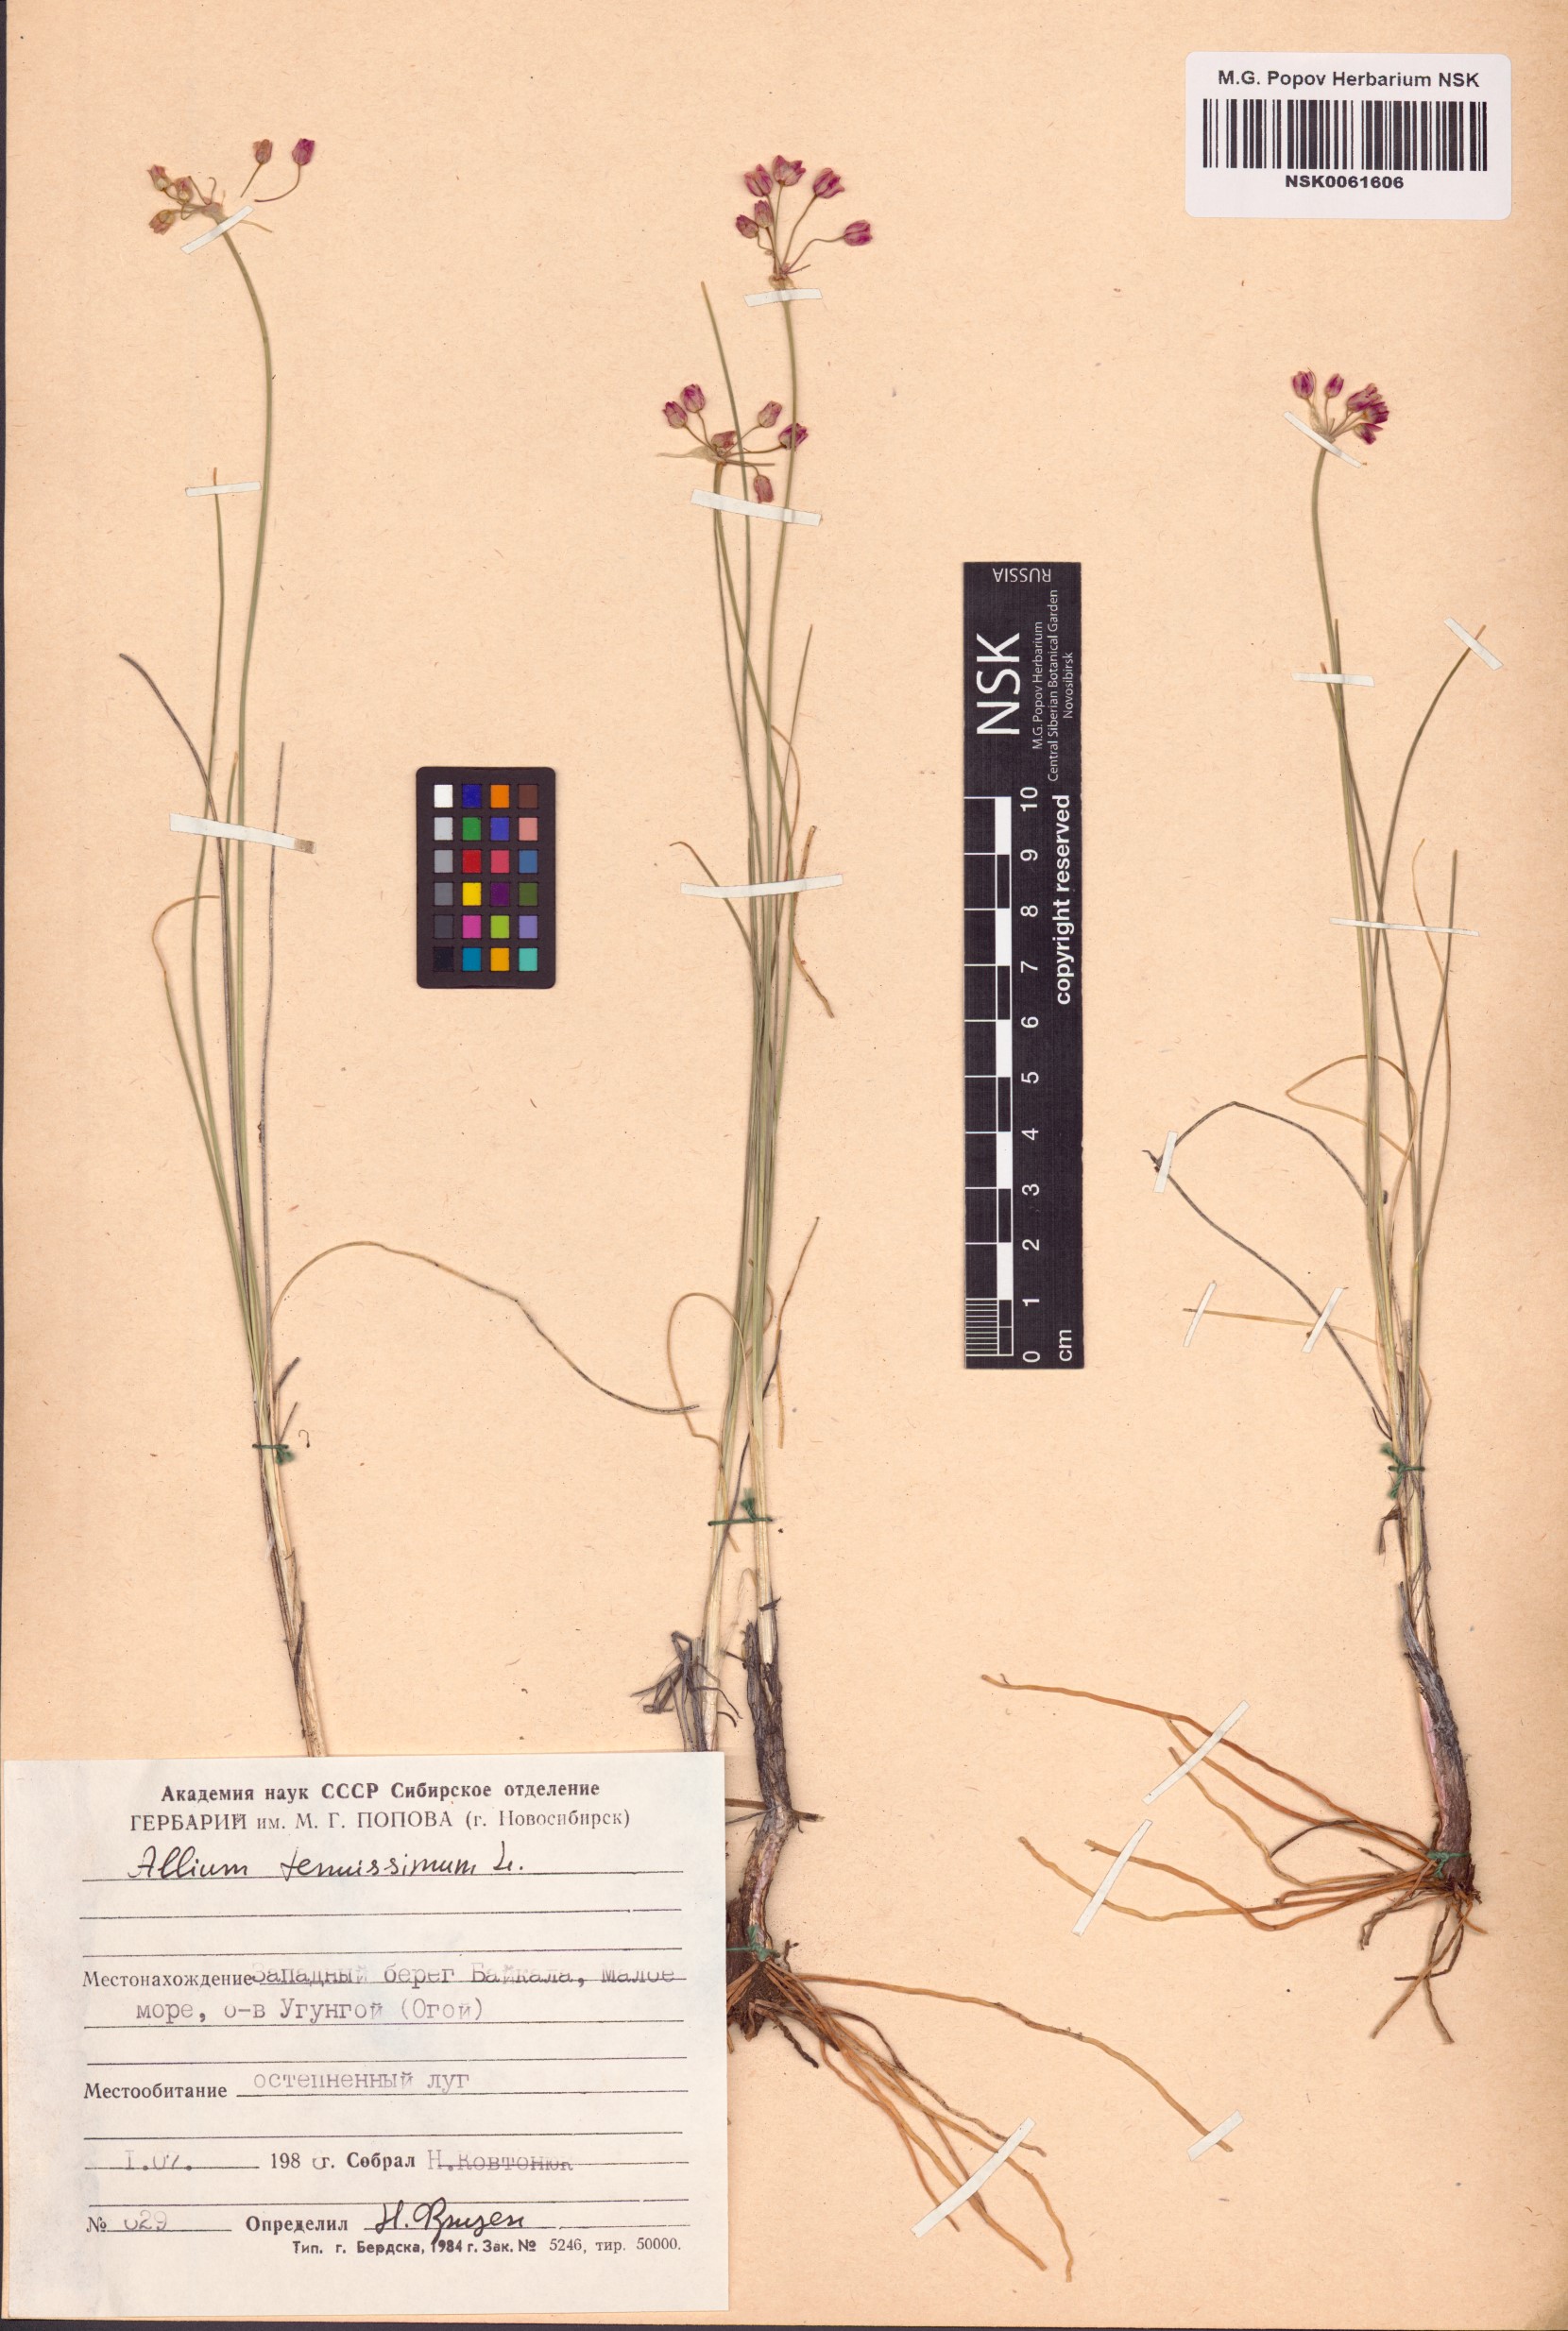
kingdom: Plantae
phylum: Tracheophyta
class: Liliopsida
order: Asparagales
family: Amaryllidaceae
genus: Allium
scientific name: Allium tenuissimum
